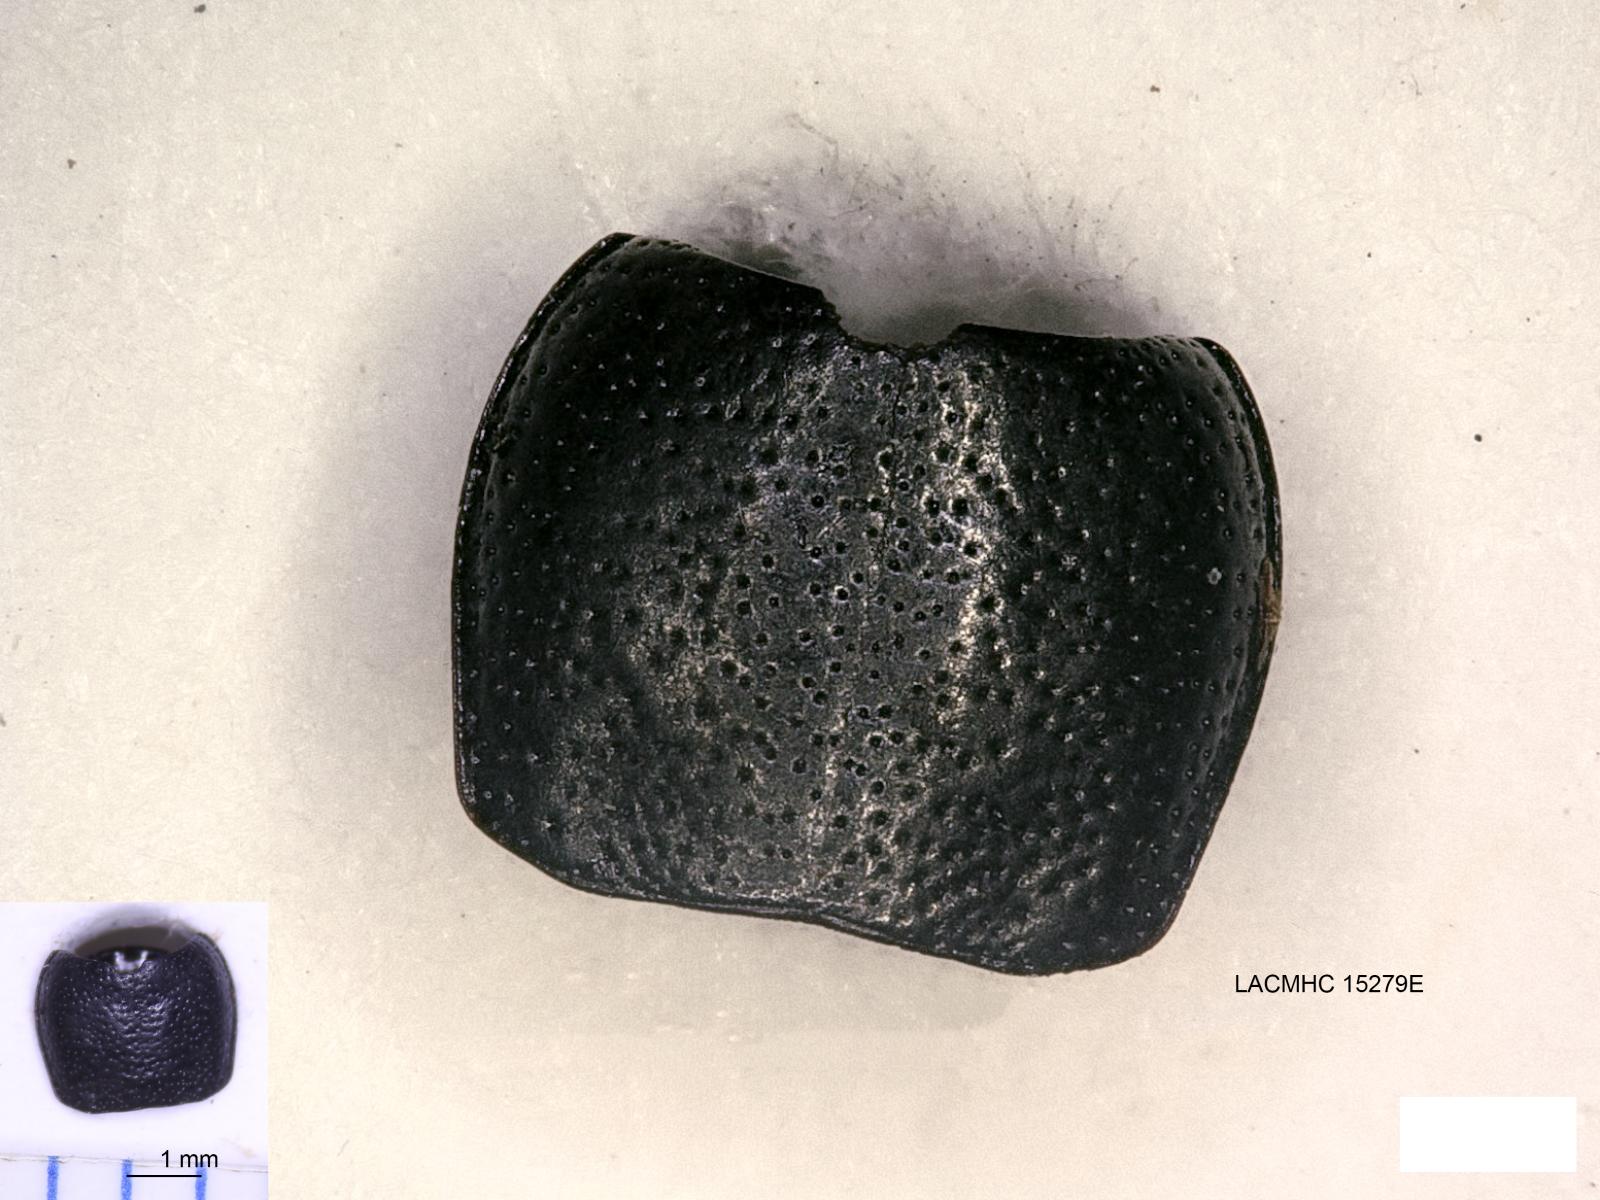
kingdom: Animalia
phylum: Arthropoda
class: Insecta
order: Coleoptera
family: Carabidae
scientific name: Carabidae
